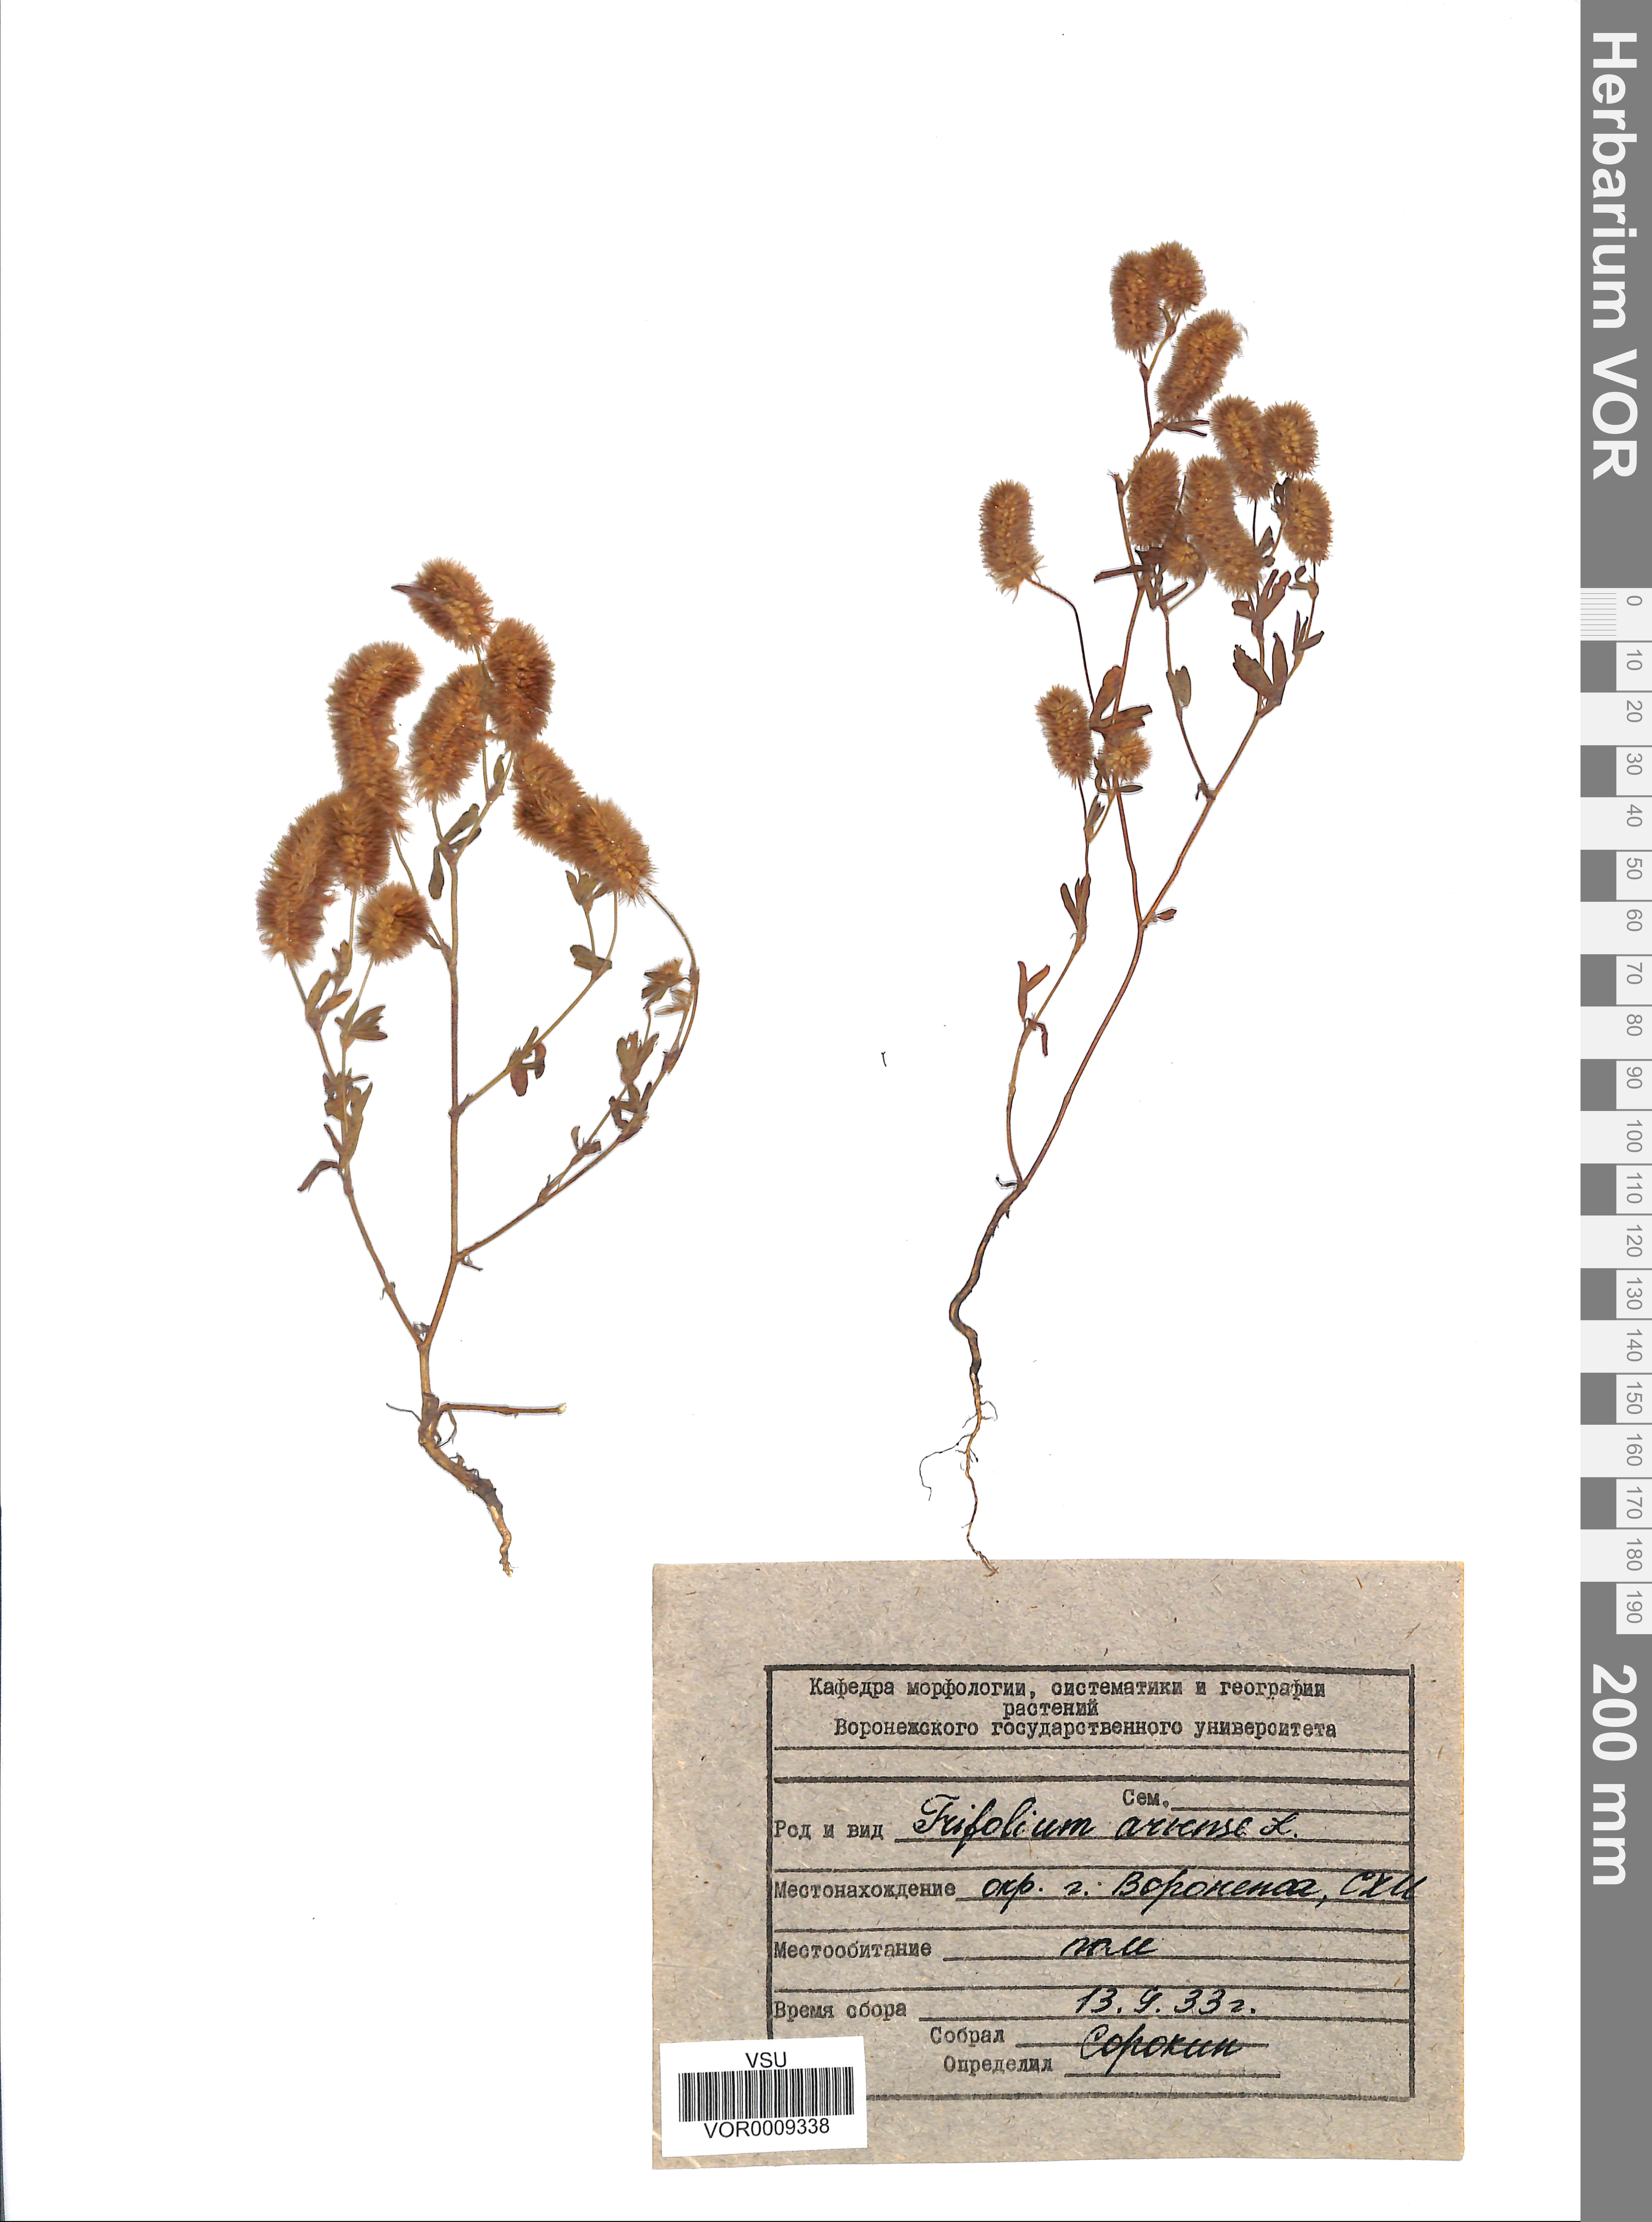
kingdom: Plantae
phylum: Tracheophyta
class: Magnoliopsida
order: Fabales
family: Fabaceae
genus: Trifolium
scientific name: Trifolium arvense
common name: Hare's-foot clover
